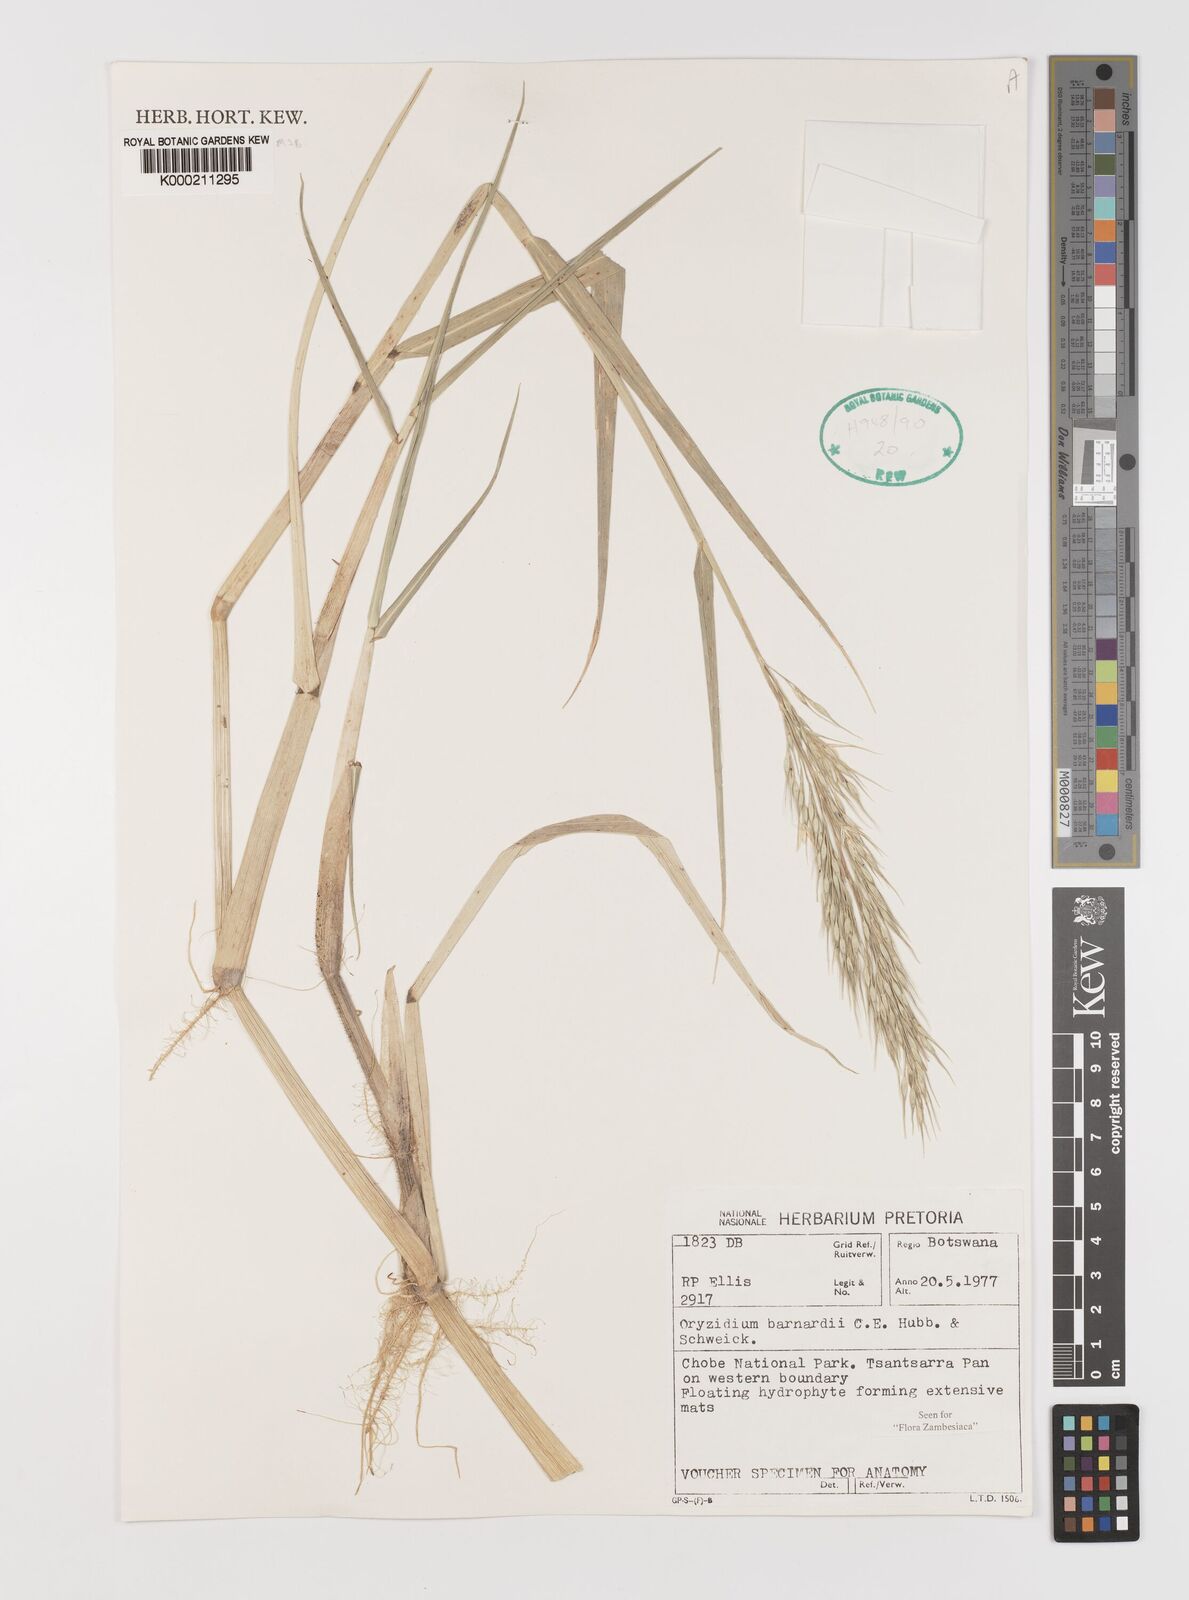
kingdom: Plantae
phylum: Tracheophyta
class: Liliopsida
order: Poales
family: Poaceae
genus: Oryzidium
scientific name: Oryzidium barnardii
